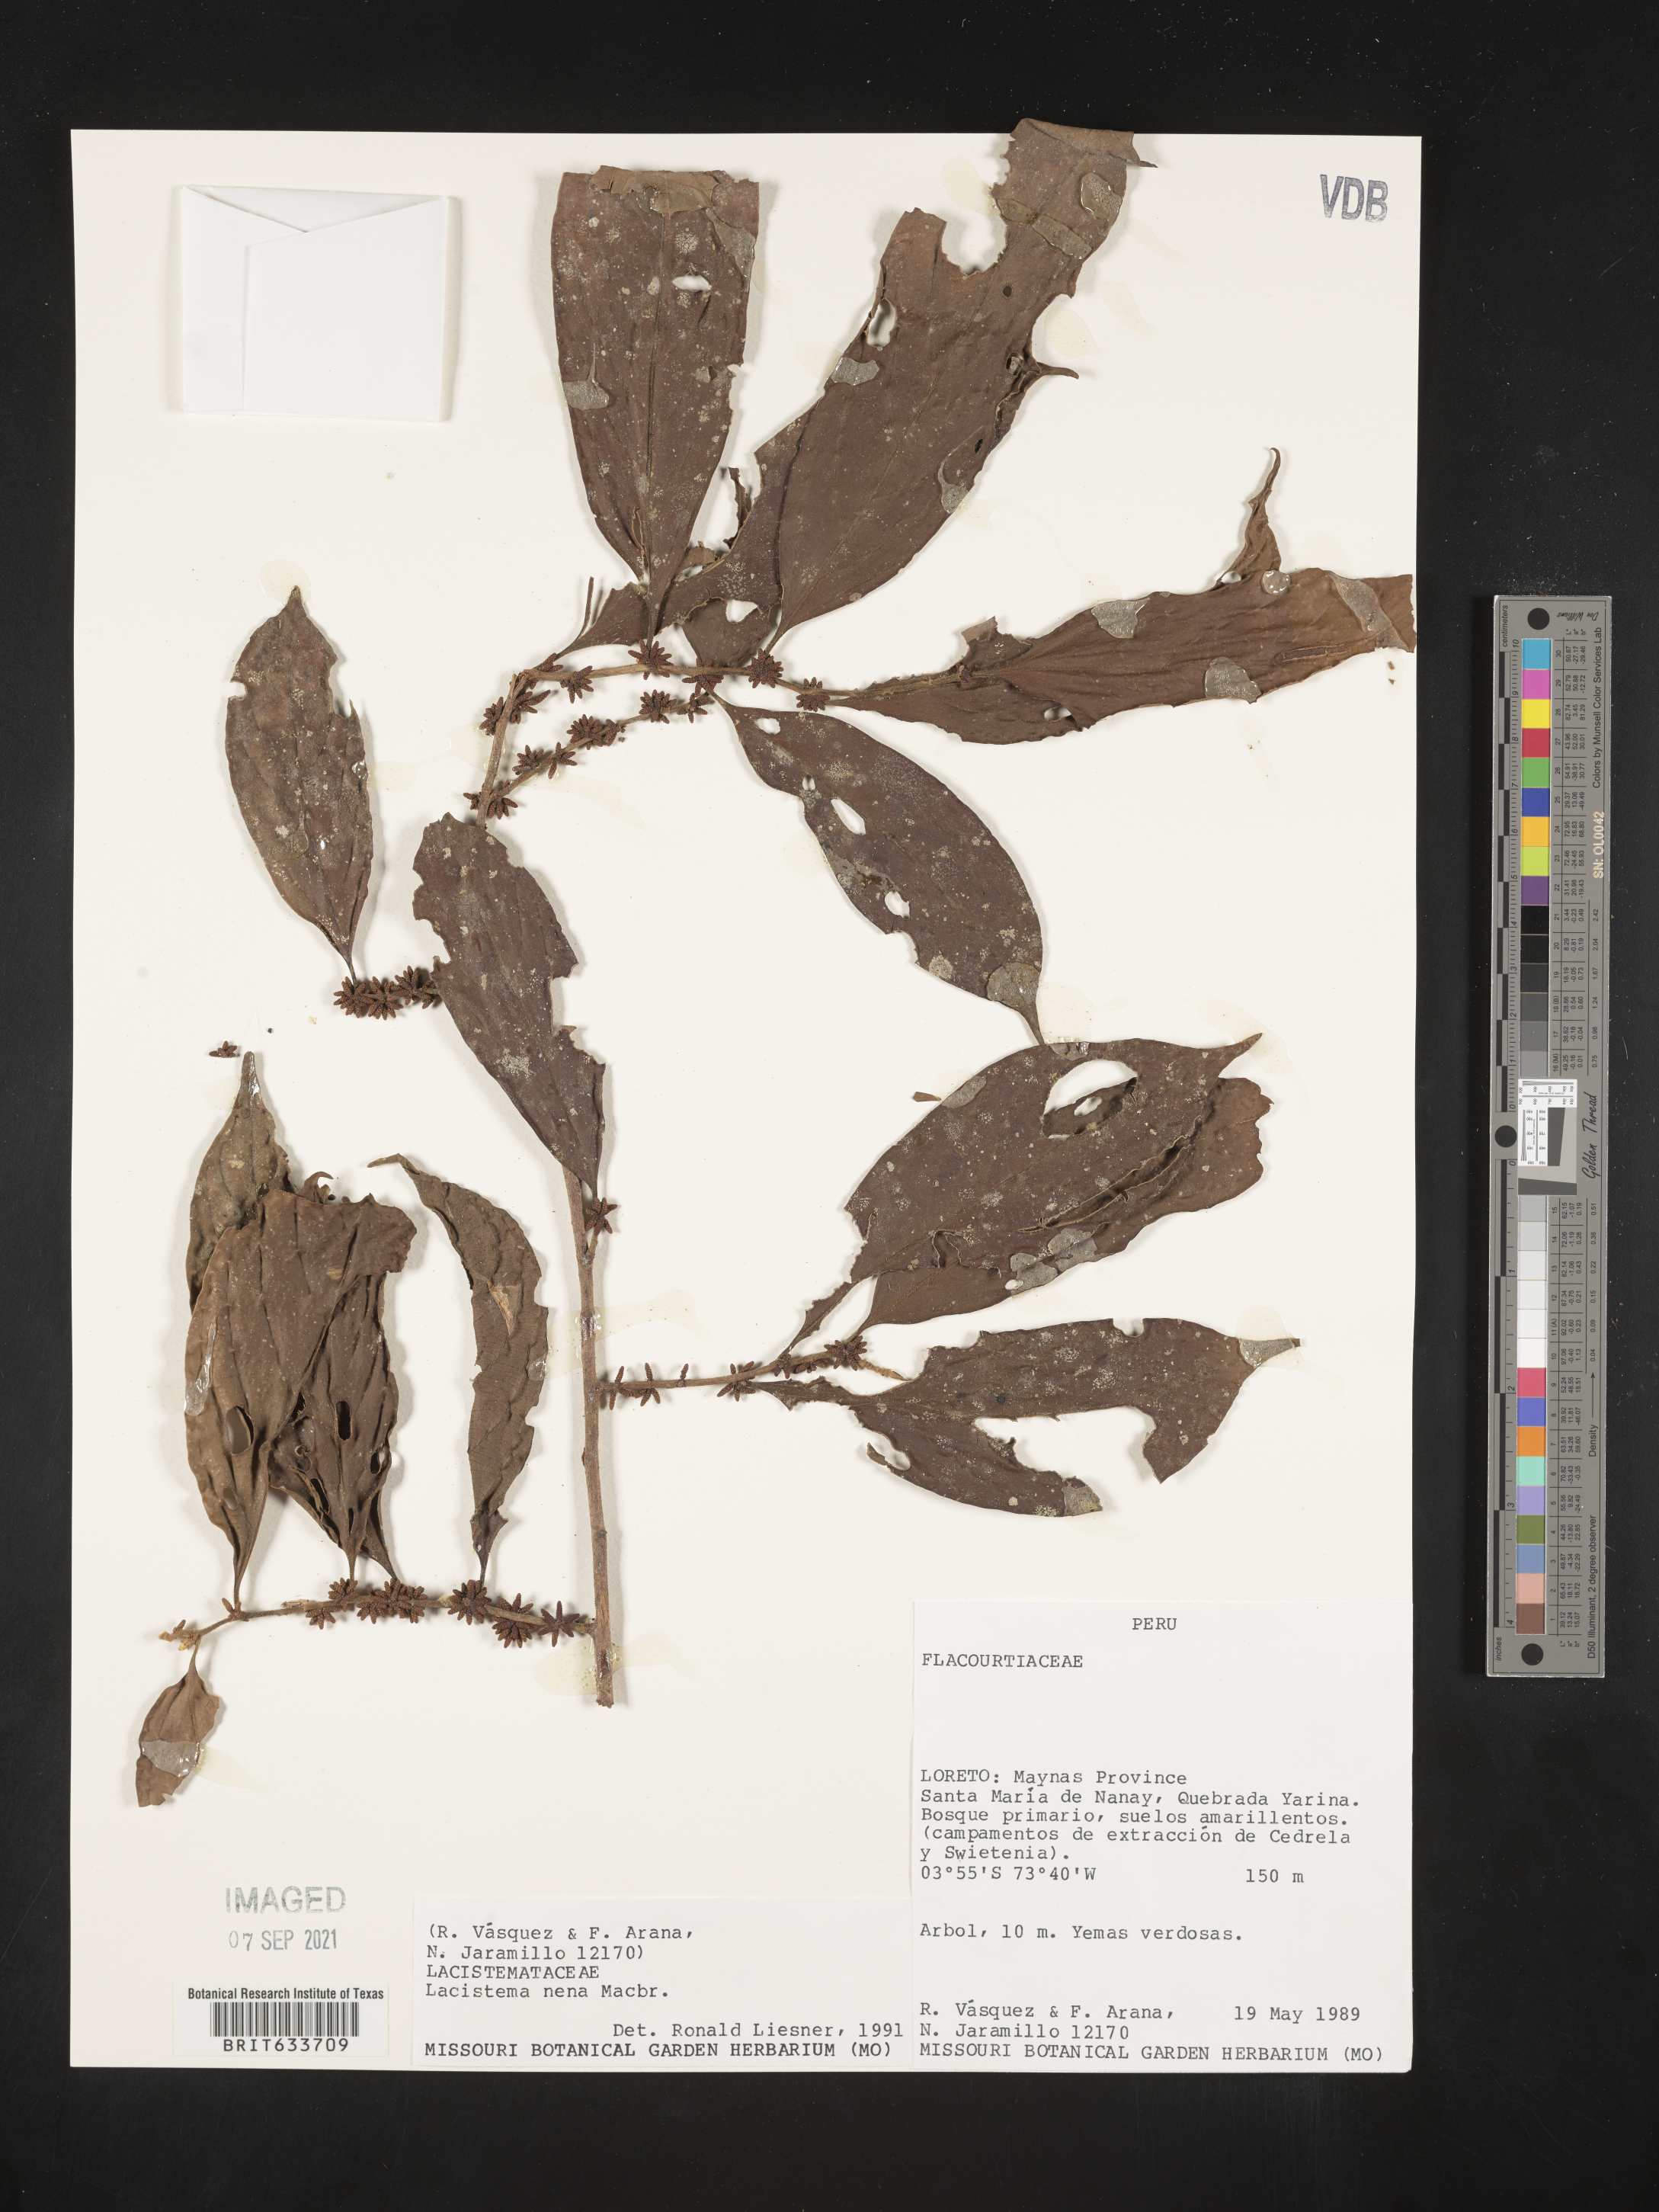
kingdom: Plantae
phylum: Tracheophyta
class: Magnoliopsida
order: Malpighiales
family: Lacistemataceae
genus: Lacistema
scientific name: Lacistema
